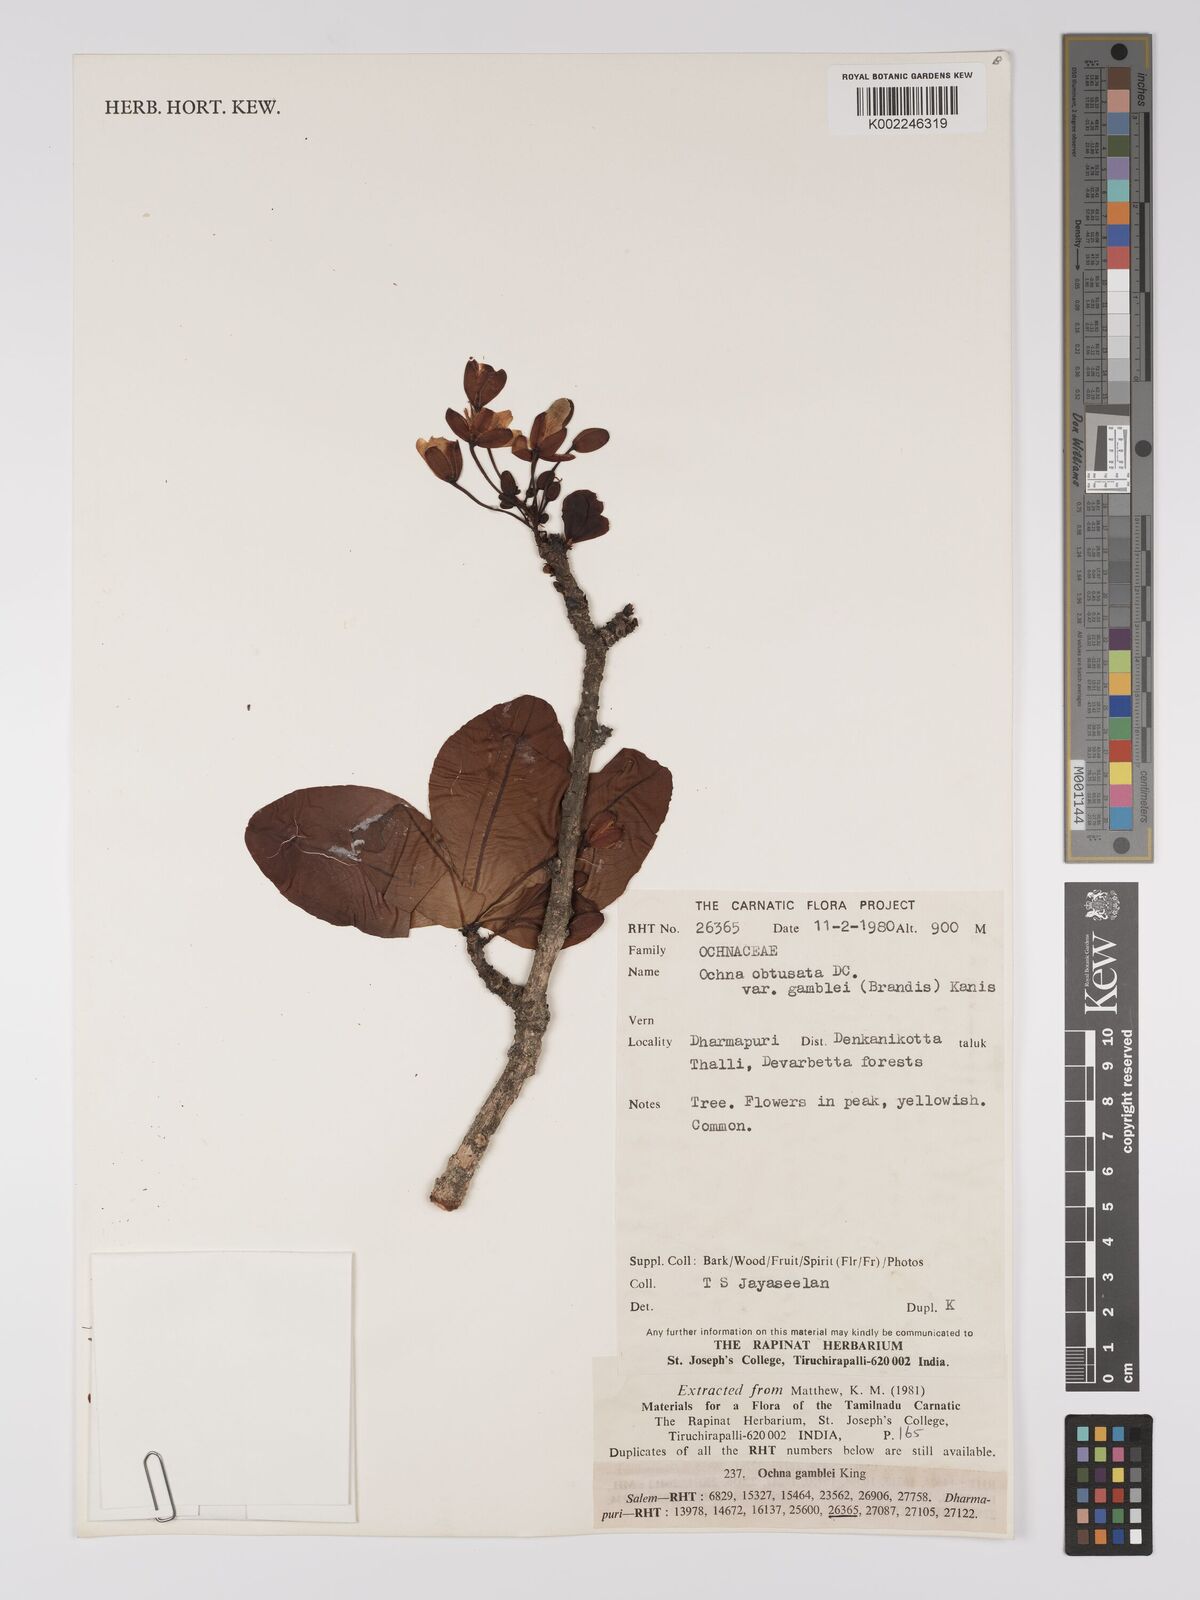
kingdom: Plantae
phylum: Tracheophyta
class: Magnoliopsida
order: Malpighiales
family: Ochnaceae
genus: Ochna
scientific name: Ochna obtusata
